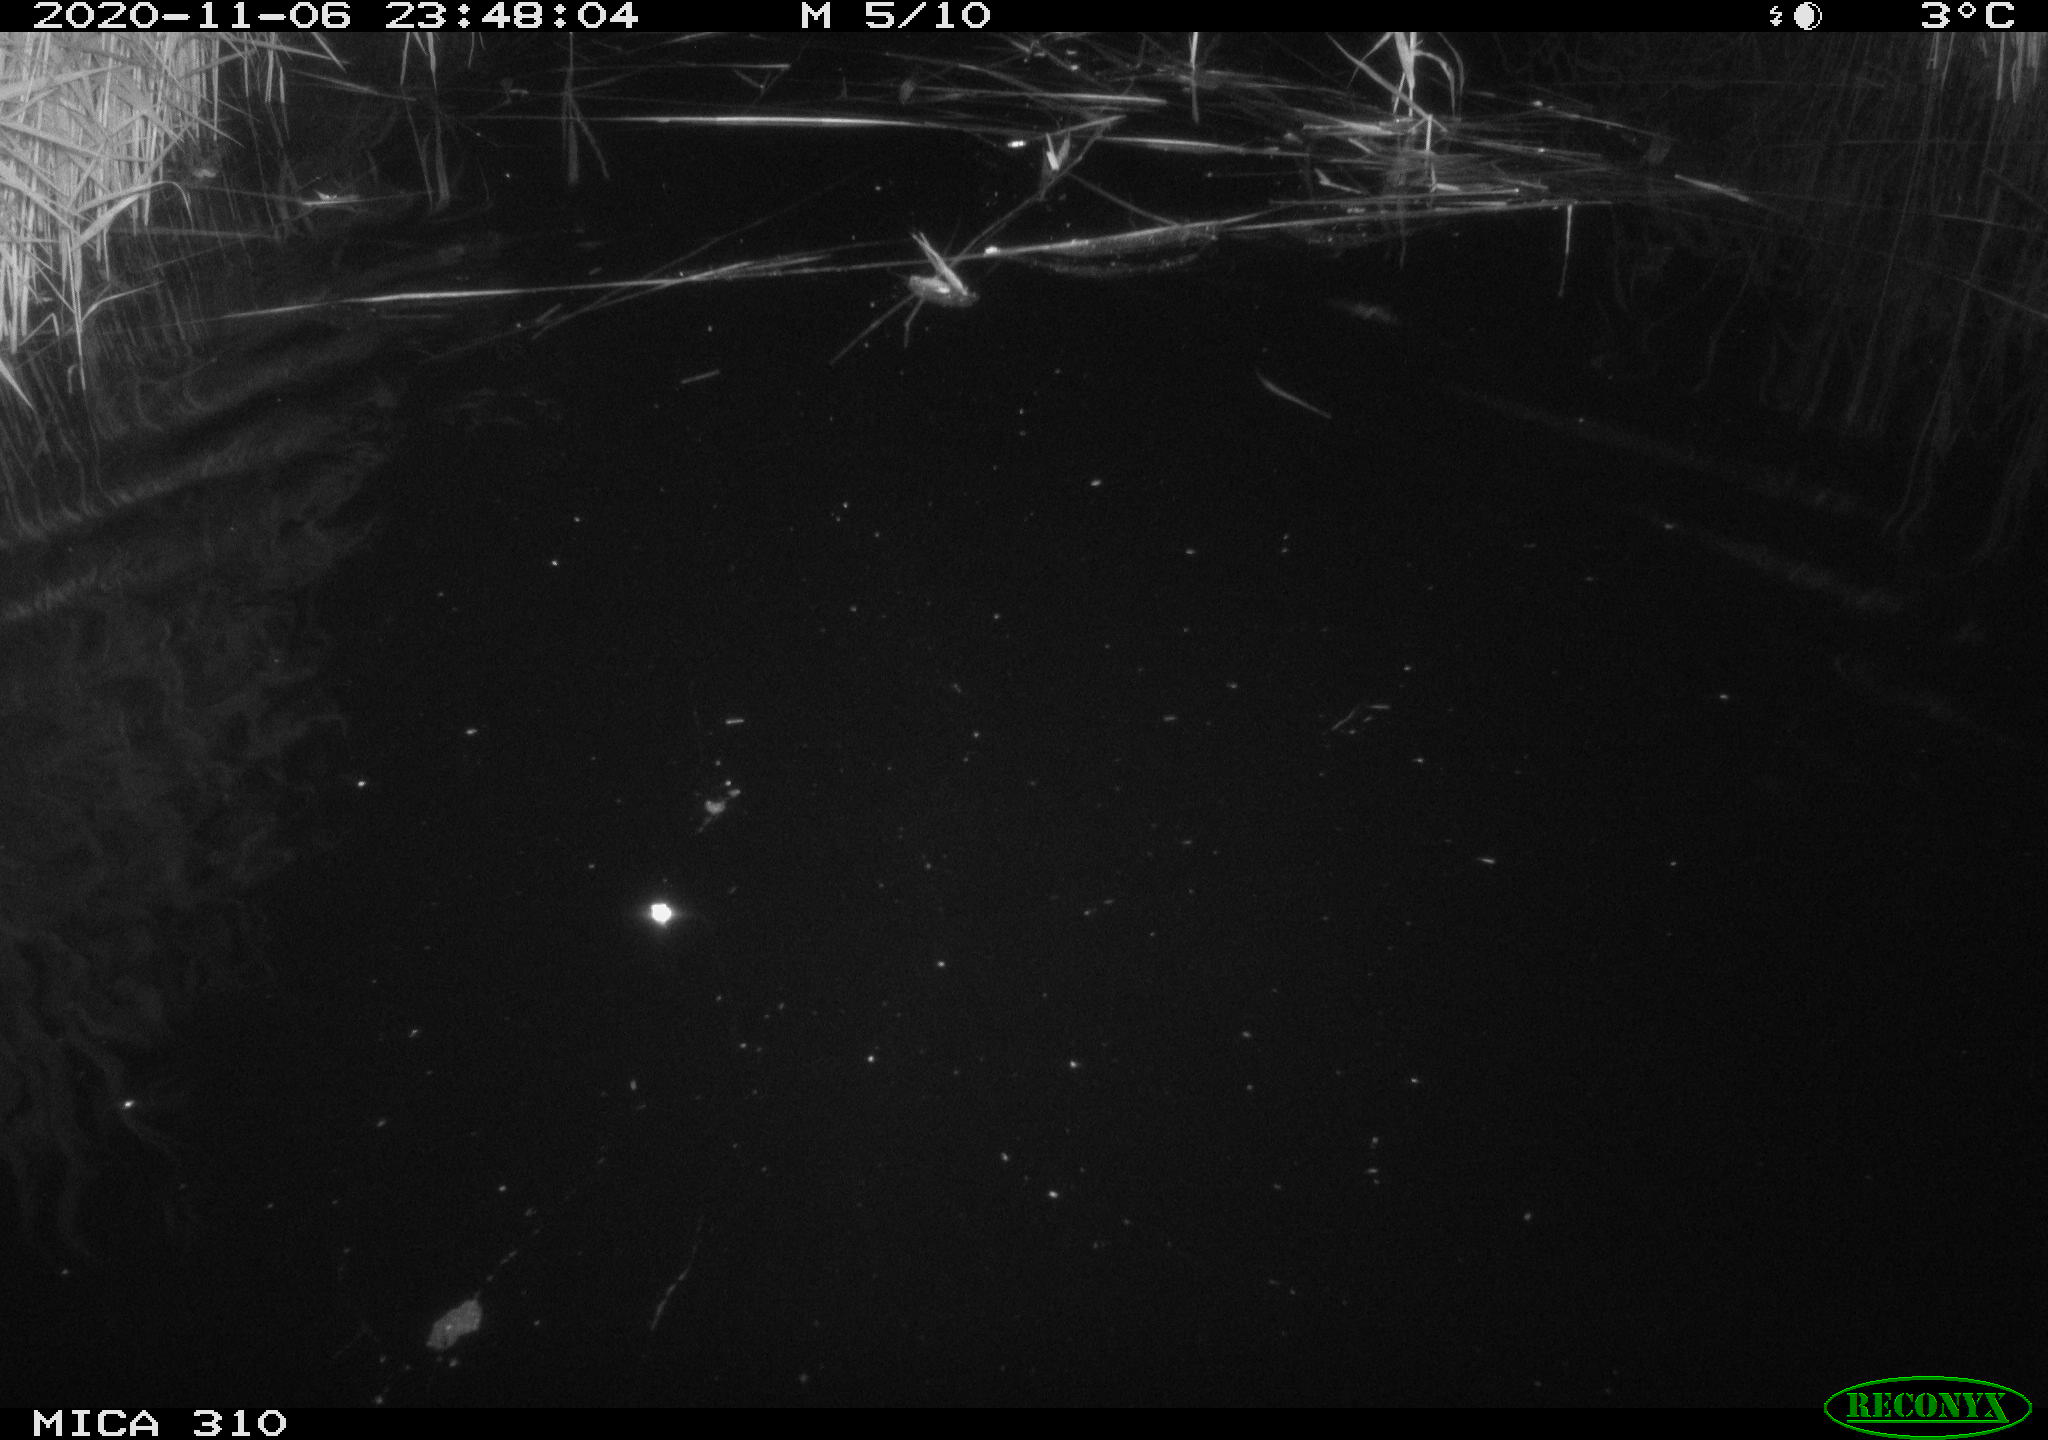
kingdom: Animalia
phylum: Chordata
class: Mammalia
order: Rodentia
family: Cricetidae
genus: Ondatra
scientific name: Ondatra zibethicus
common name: Muskrat
